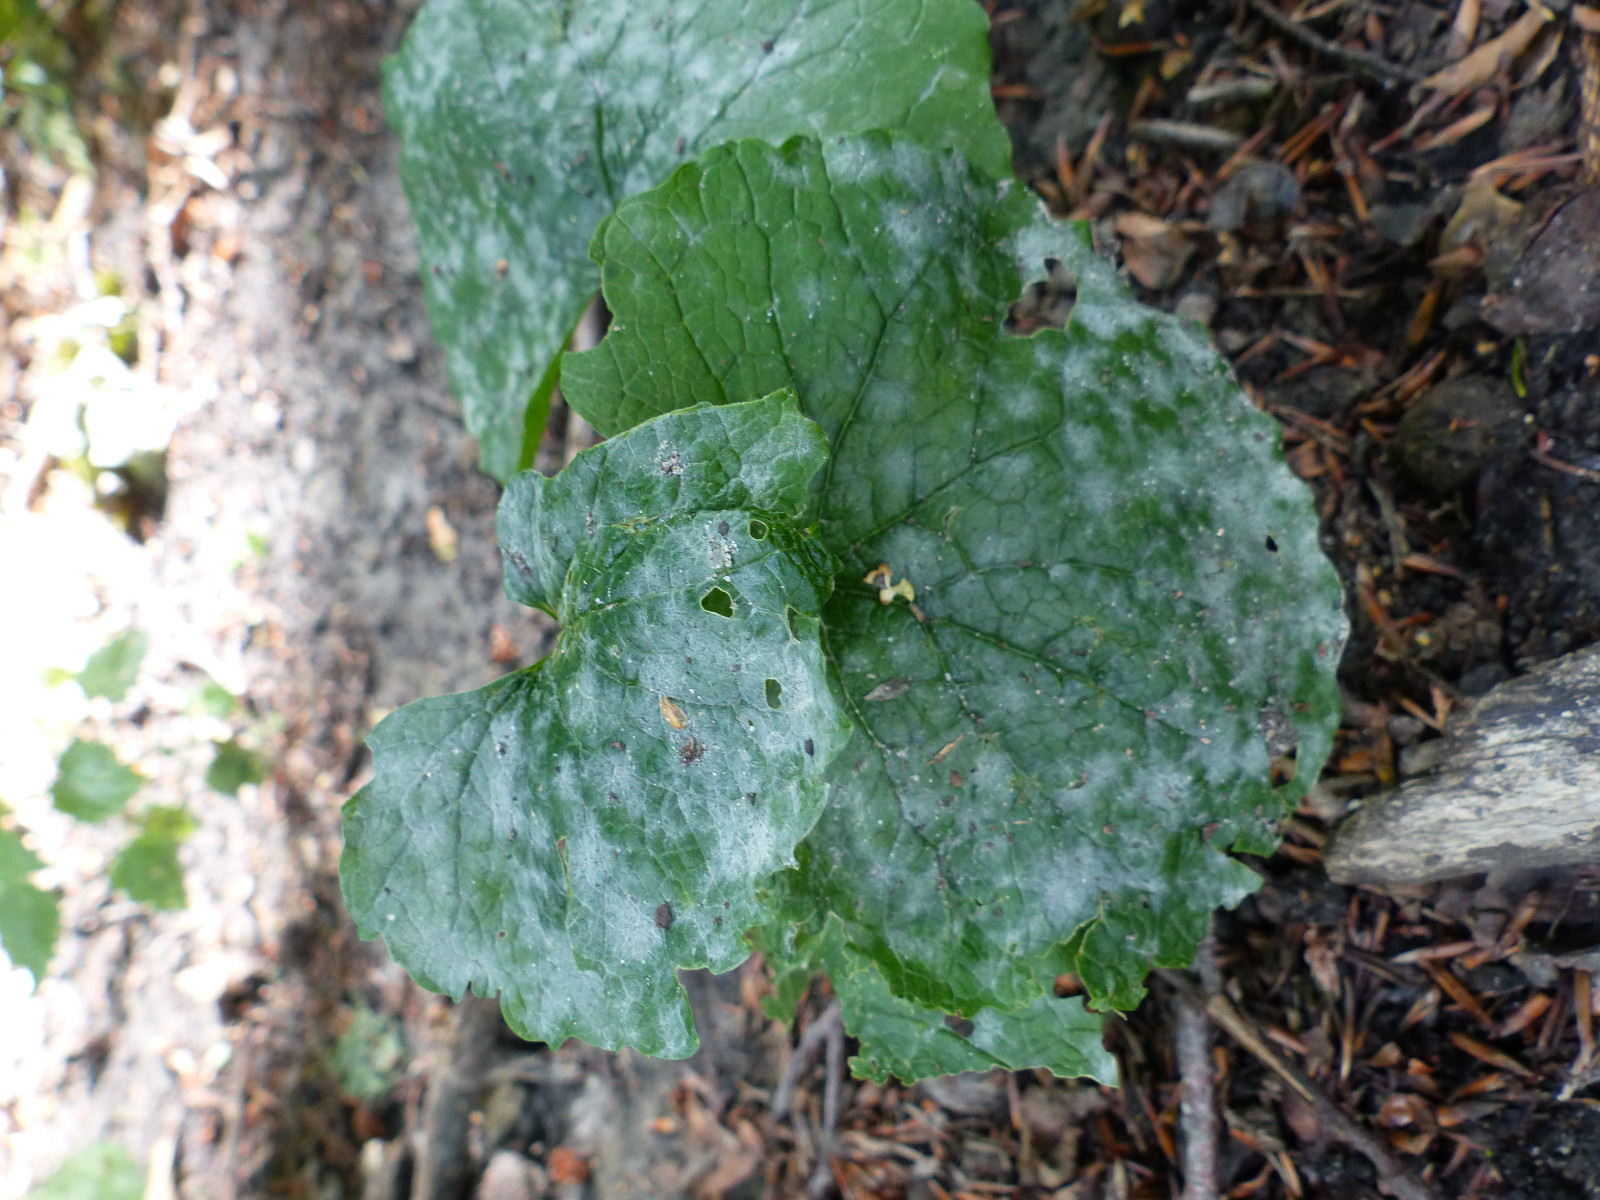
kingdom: Fungi
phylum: Ascomycota
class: Leotiomycetes
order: Helotiales
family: Erysiphaceae
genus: Erysiphe
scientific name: Erysiphe cruciferarum
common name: korsblomst-meldug
